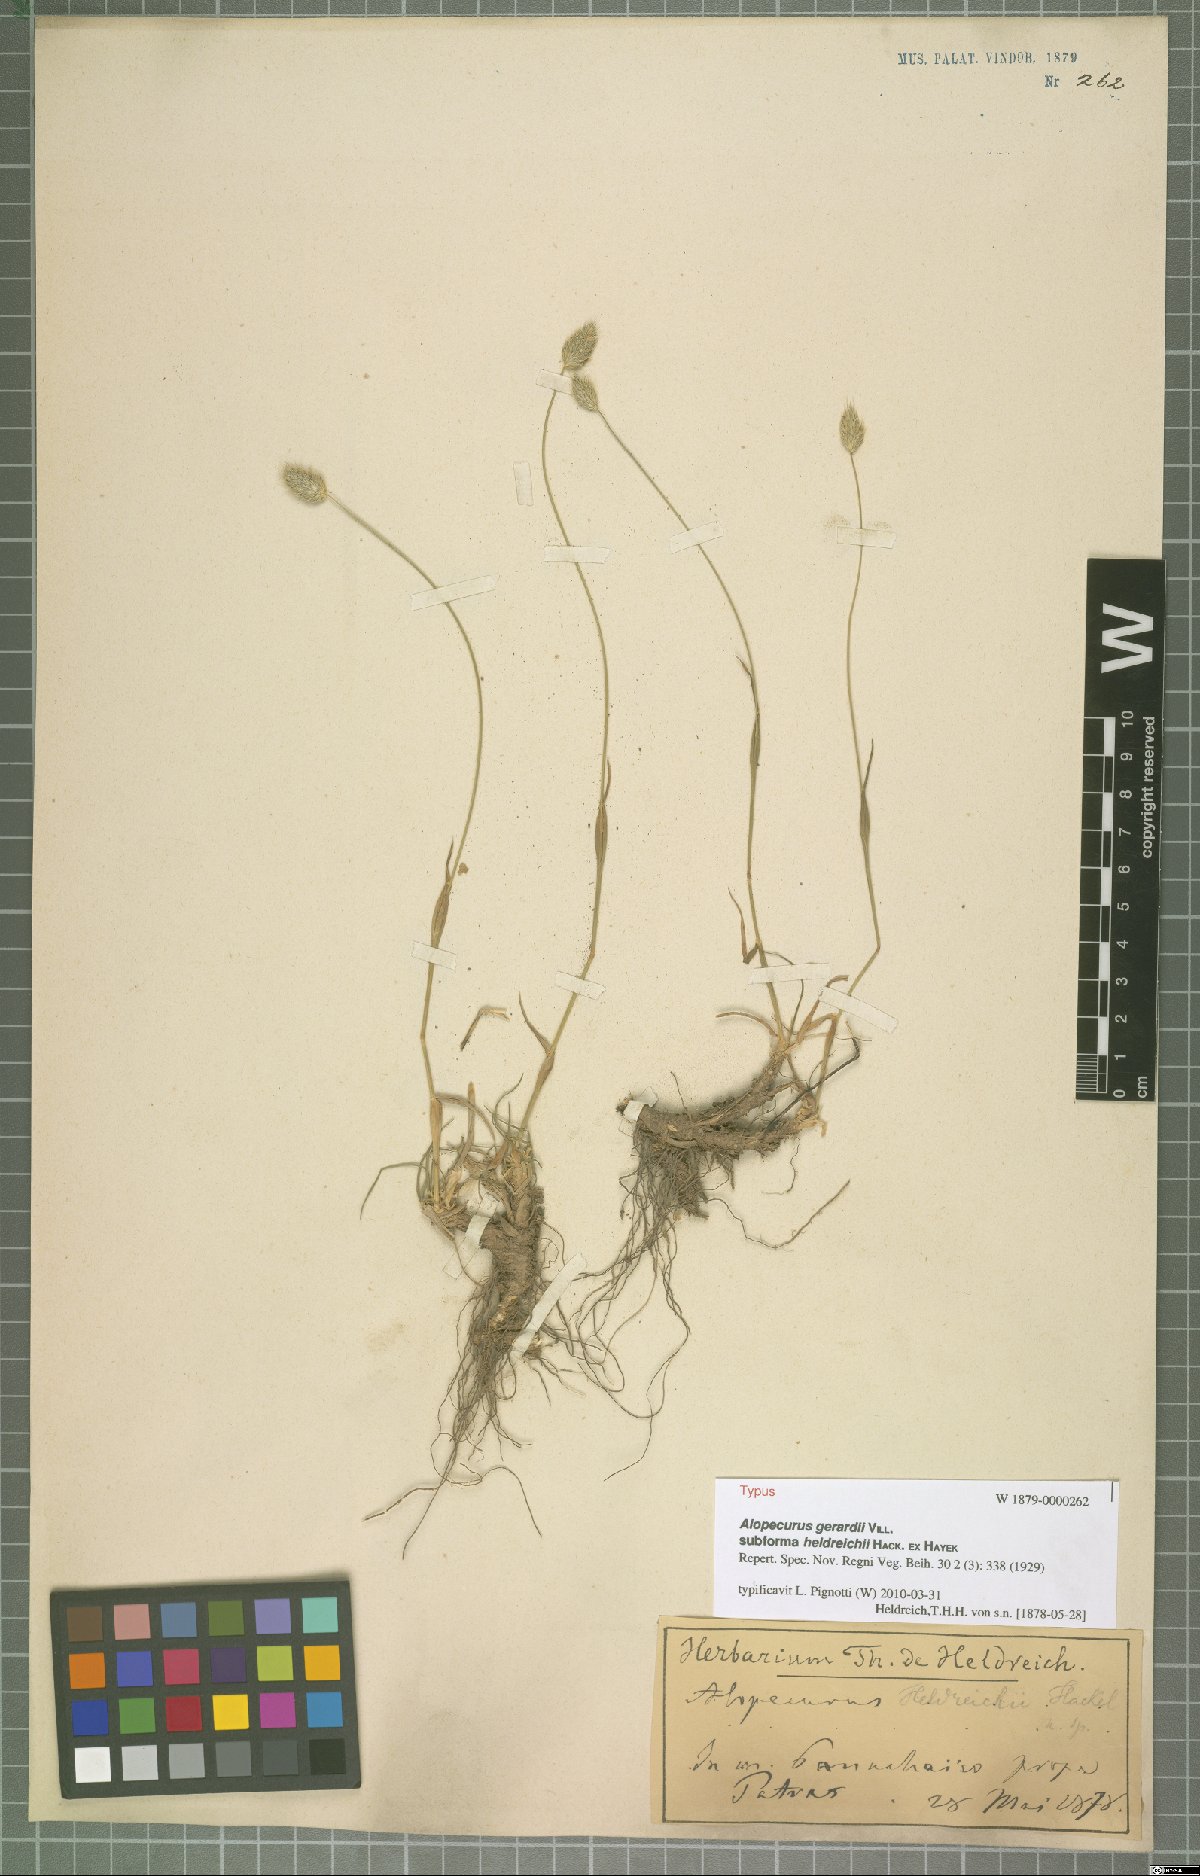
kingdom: Plantae
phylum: Tracheophyta
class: Liliopsida
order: Poales
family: Poaceae
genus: Festuca
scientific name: Festuca jeanpertii
